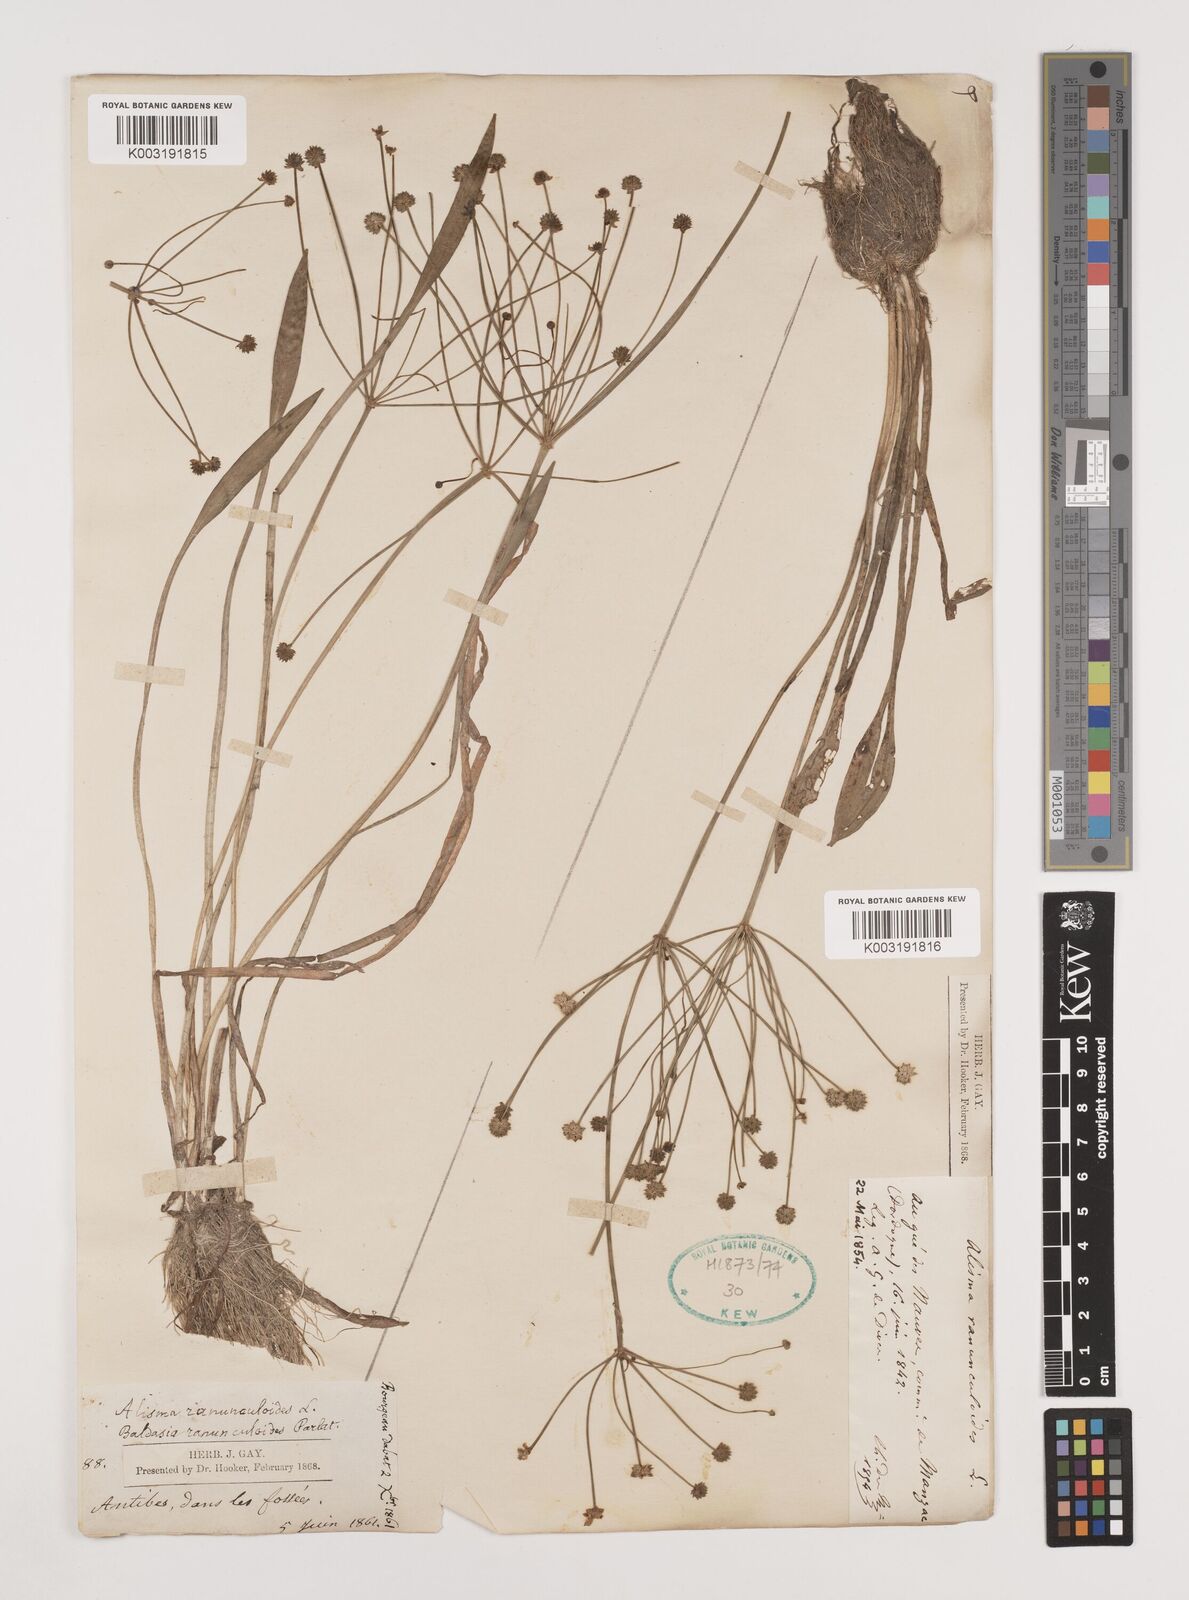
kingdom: Plantae
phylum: Tracheophyta
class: Liliopsida
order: Alismatales
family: Alismataceae
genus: Baldellia
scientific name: Baldellia ranunculoides
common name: Lesser water-plantain
